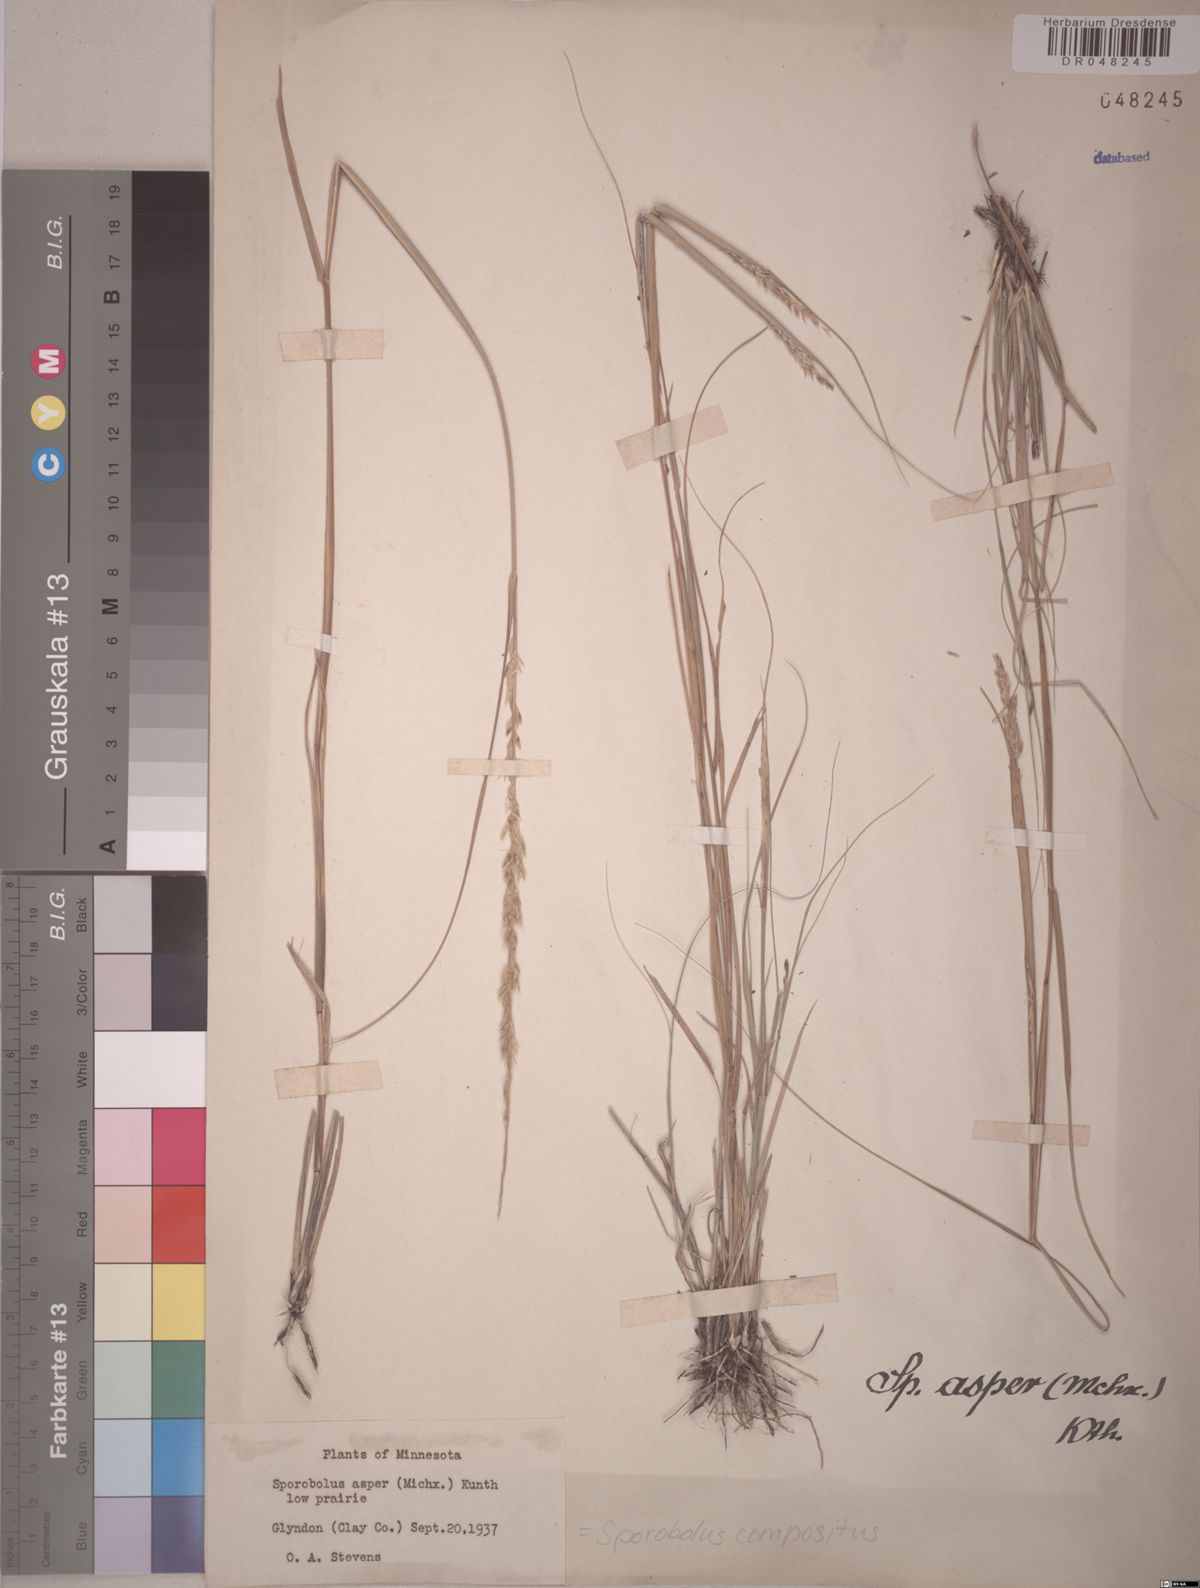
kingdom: Plantae
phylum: Tracheophyta
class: Liliopsida
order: Poales
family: Poaceae
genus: Sporobolus
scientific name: Sporobolus compositus
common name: Rough dropseed
